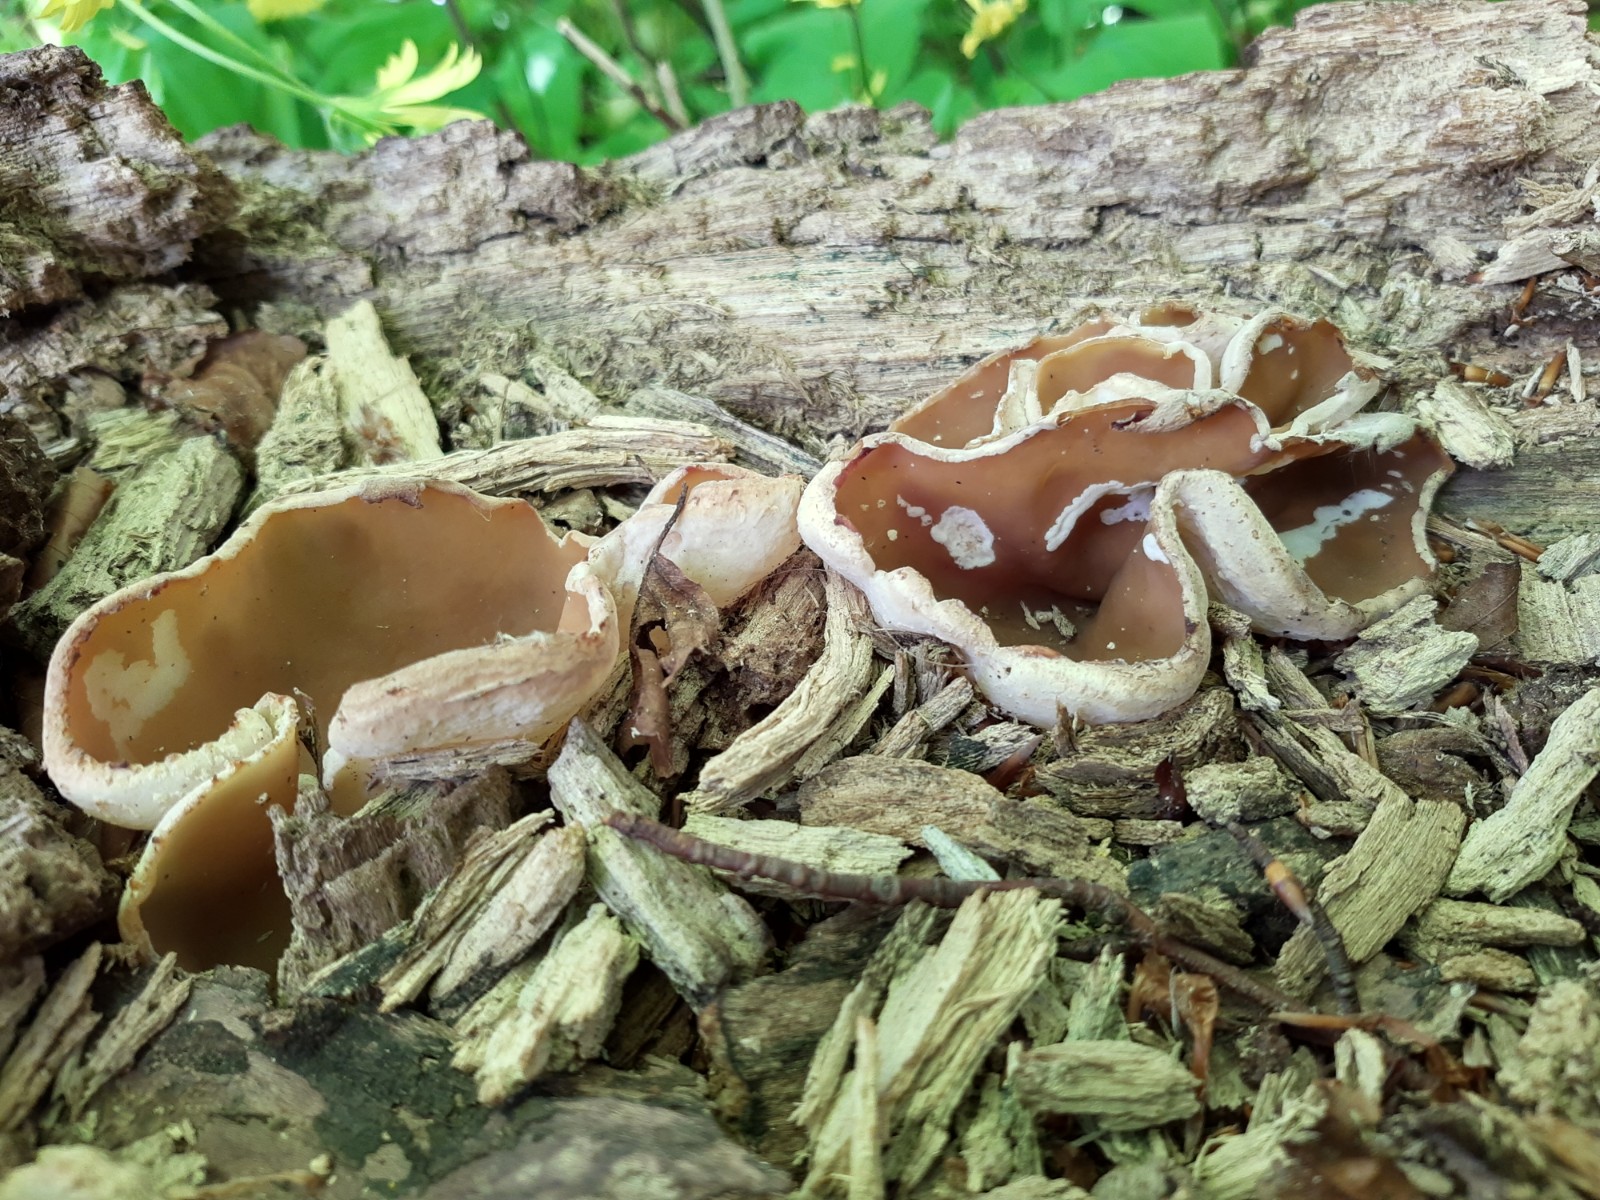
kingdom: Fungi
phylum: Ascomycota
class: Pezizomycetes
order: Pezizales
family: Pezizaceae
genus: Peziza
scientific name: Peziza varia
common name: Ved-bægersvamp
